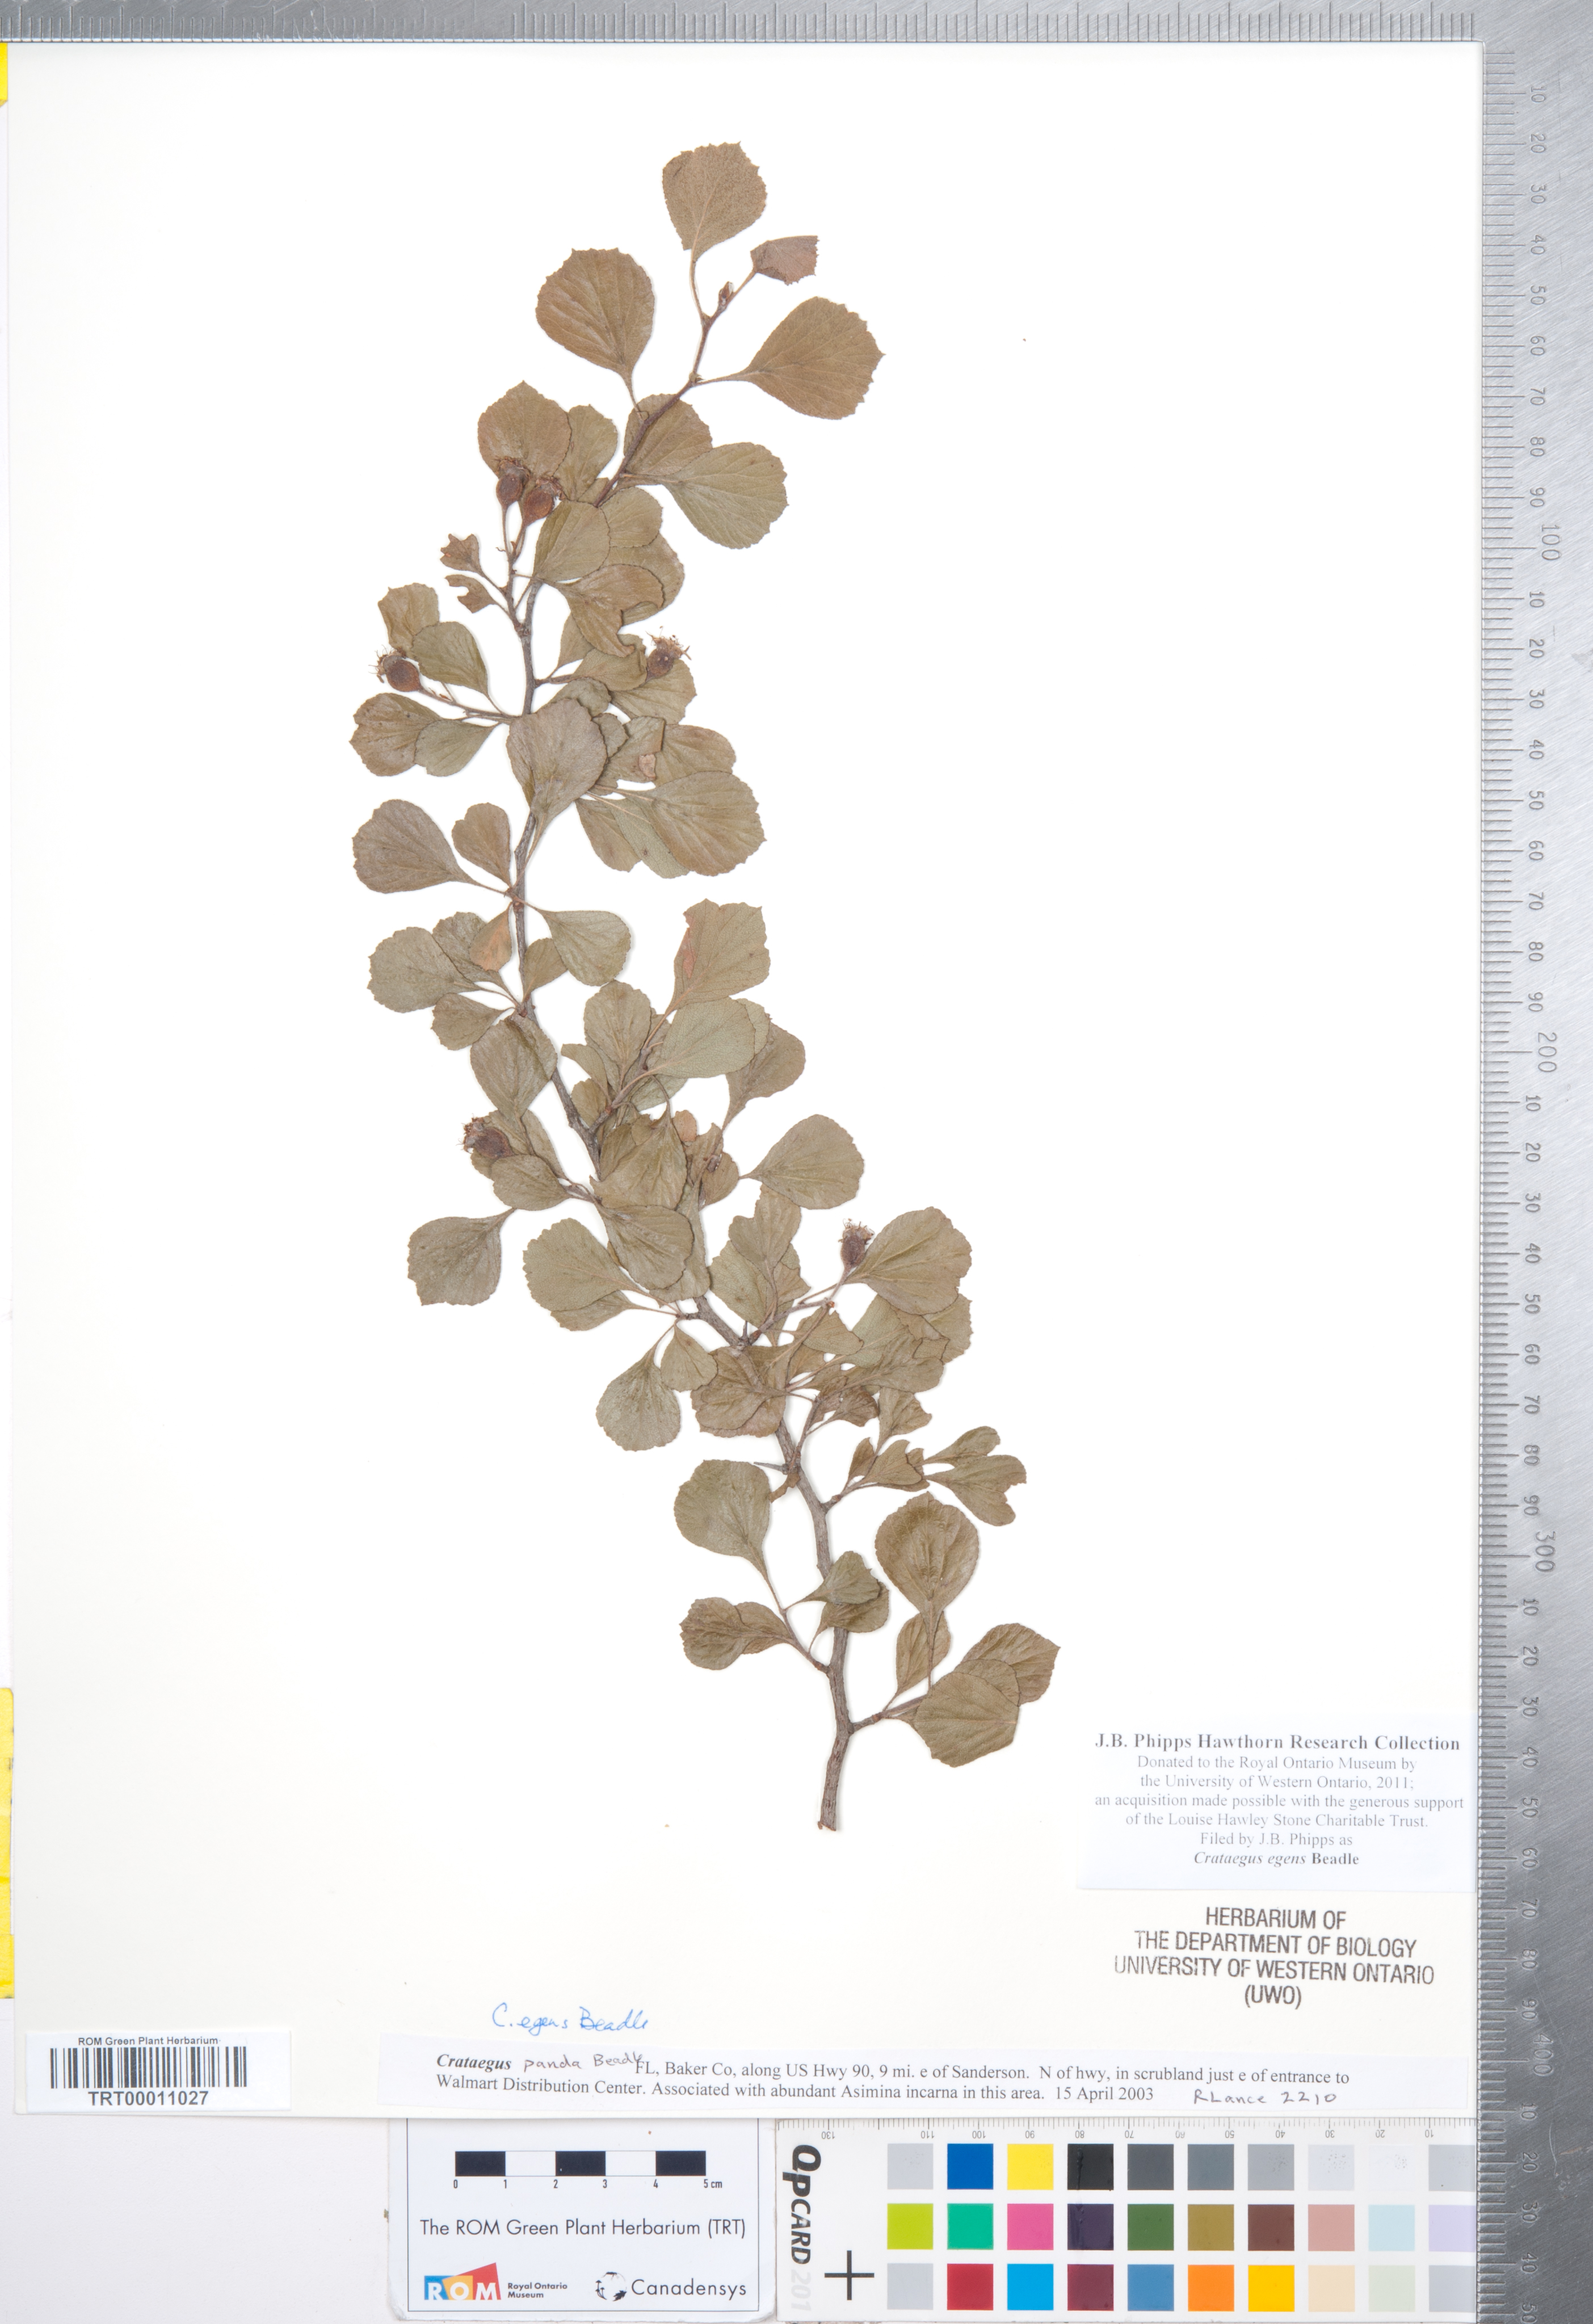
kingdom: Plantae
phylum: Tracheophyta
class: Magnoliopsida
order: Rosales
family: Rosaceae
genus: Crataegus
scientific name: Crataegus senta
